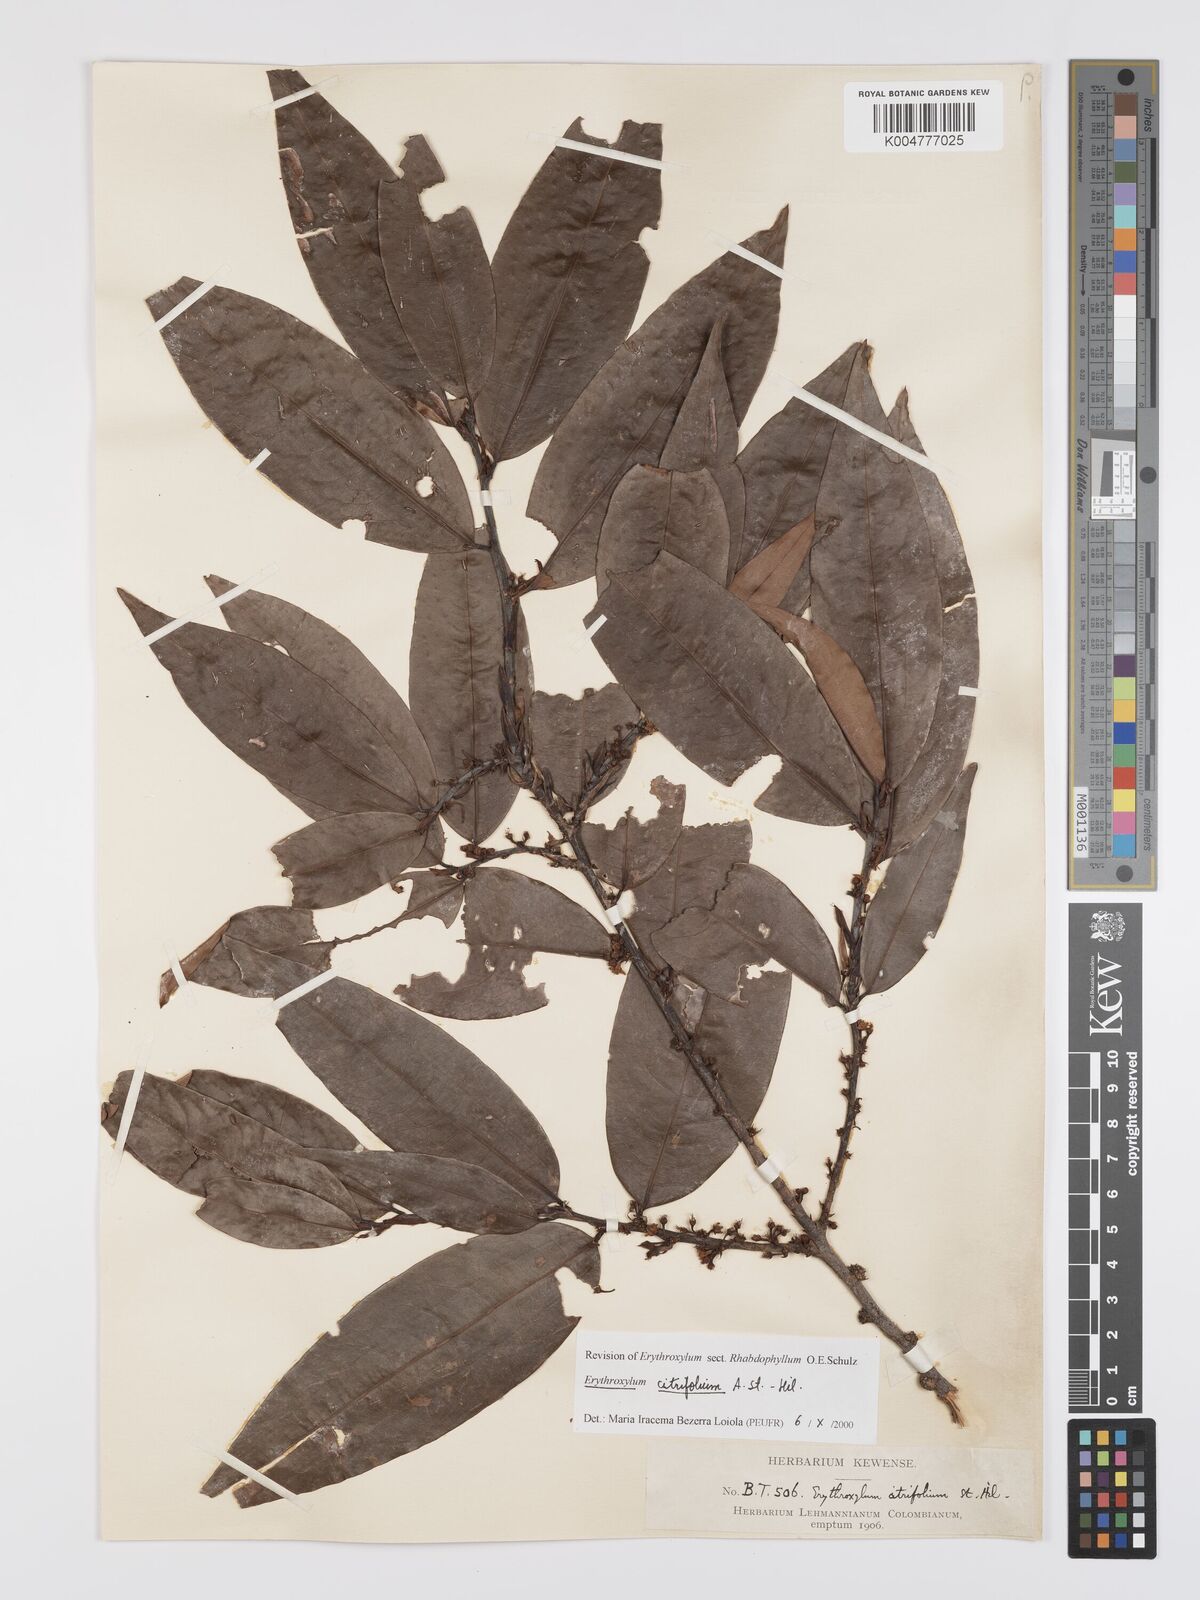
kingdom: Plantae
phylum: Tracheophyta
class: Magnoliopsida
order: Malpighiales
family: Erythroxylaceae
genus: Erythroxylum
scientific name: Erythroxylum citrifolium
